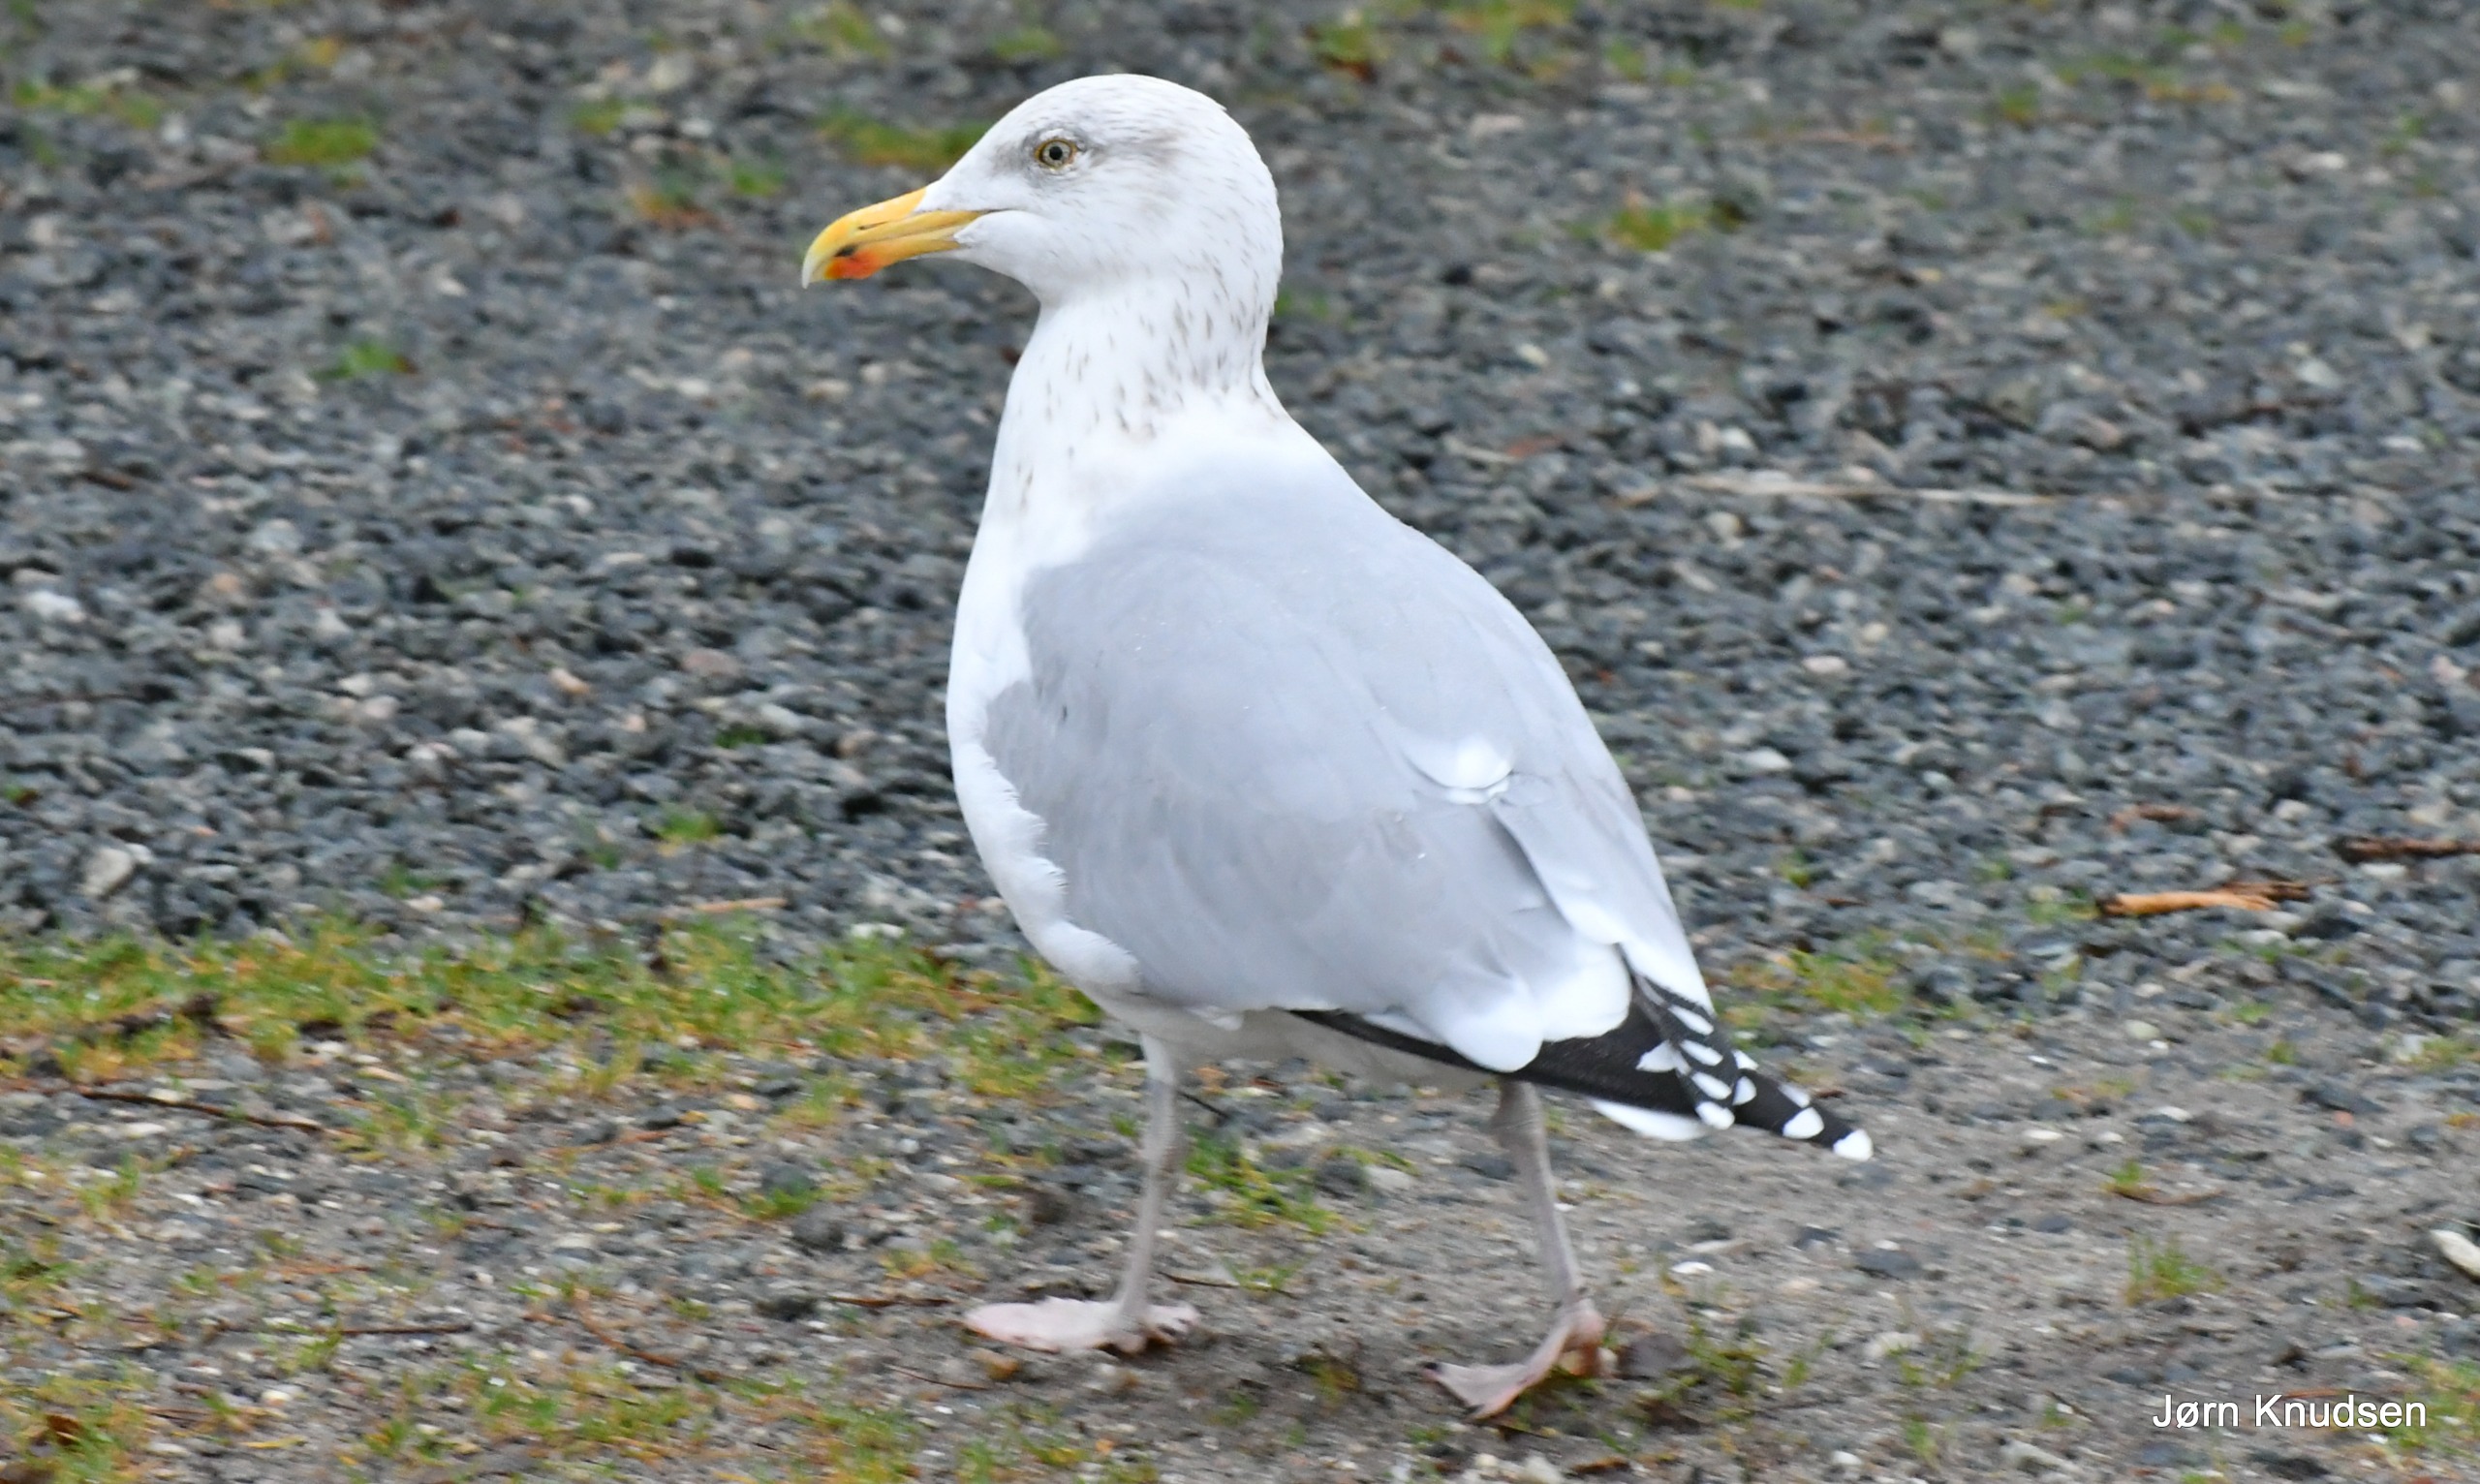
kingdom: Animalia
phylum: Chordata
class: Aves
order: Charadriiformes
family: Laridae
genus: Larus
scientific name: Larus argentatus
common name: Sølvmåge
